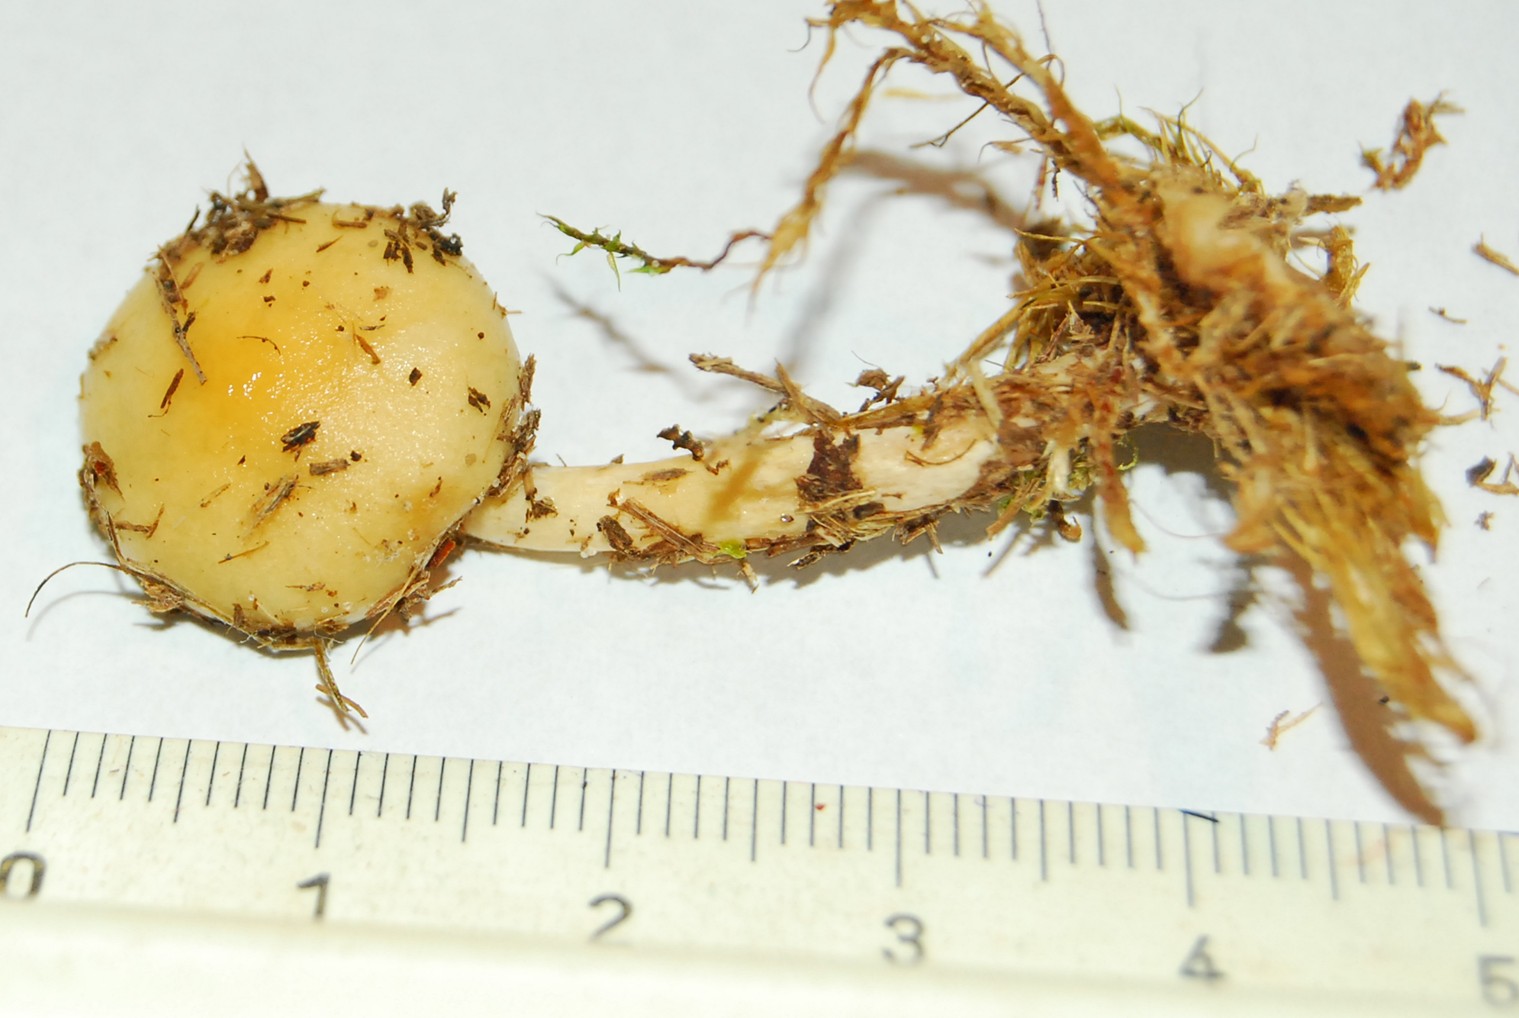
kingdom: Fungi
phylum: Basidiomycota
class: Agaricomycetes
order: Agaricales
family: Strophariaceae
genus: Protostropharia
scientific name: Protostropharia semiglobata
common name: halvkugleformet bredblad
